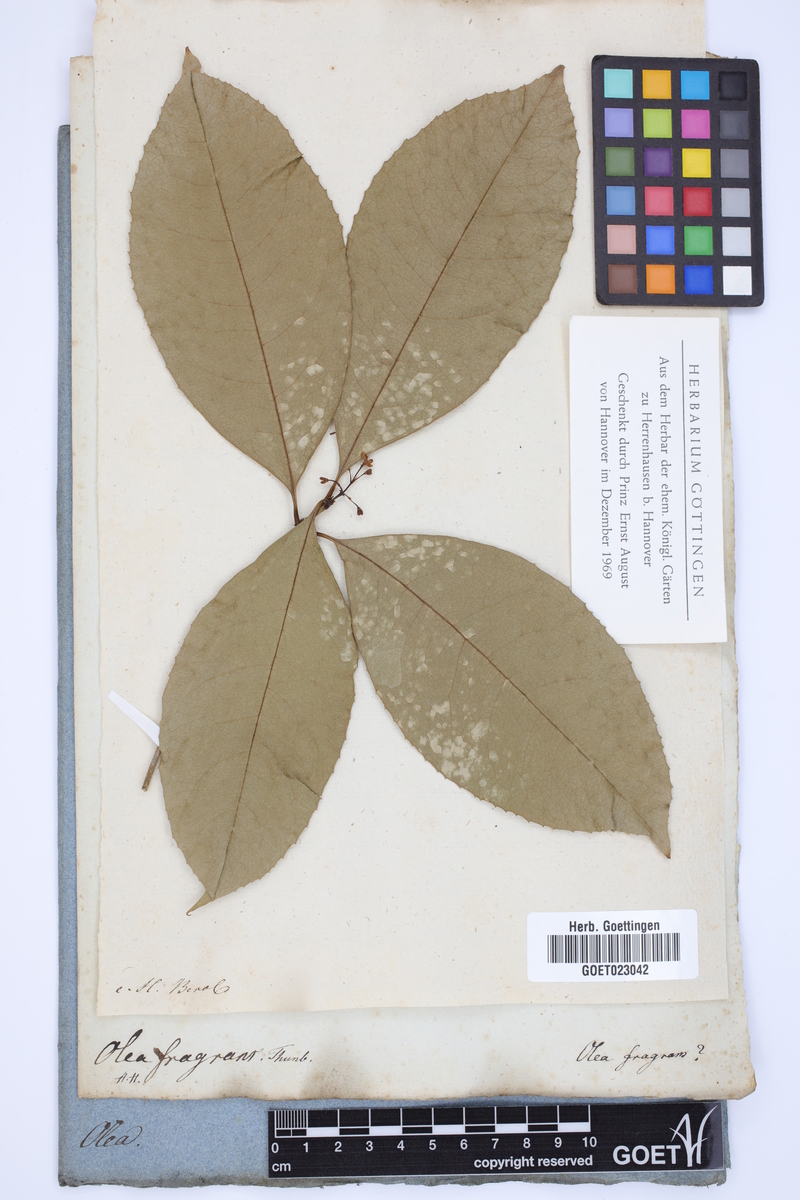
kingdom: Plantae
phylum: Tracheophyta
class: Magnoliopsida
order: Lamiales
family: Oleaceae
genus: Osmanthus
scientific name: Osmanthus fragrans
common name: Sweet osmanthus
